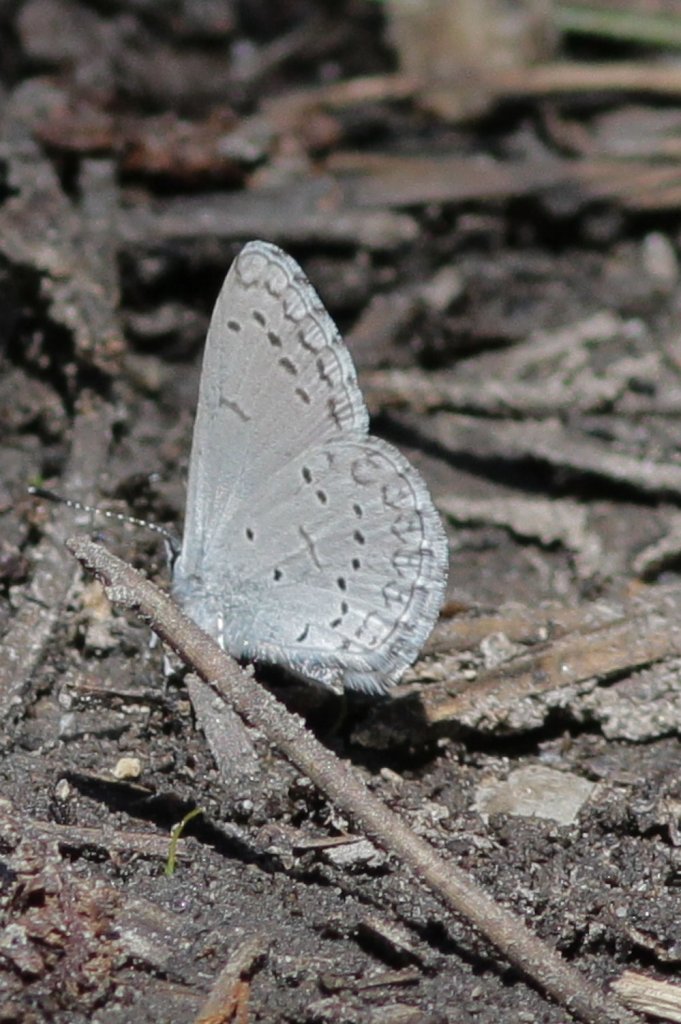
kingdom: Animalia
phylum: Arthropoda
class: Insecta
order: Lepidoptera
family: Lycaenidae
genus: Celastrina
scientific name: Celastrina ladon
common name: Echo Azure
